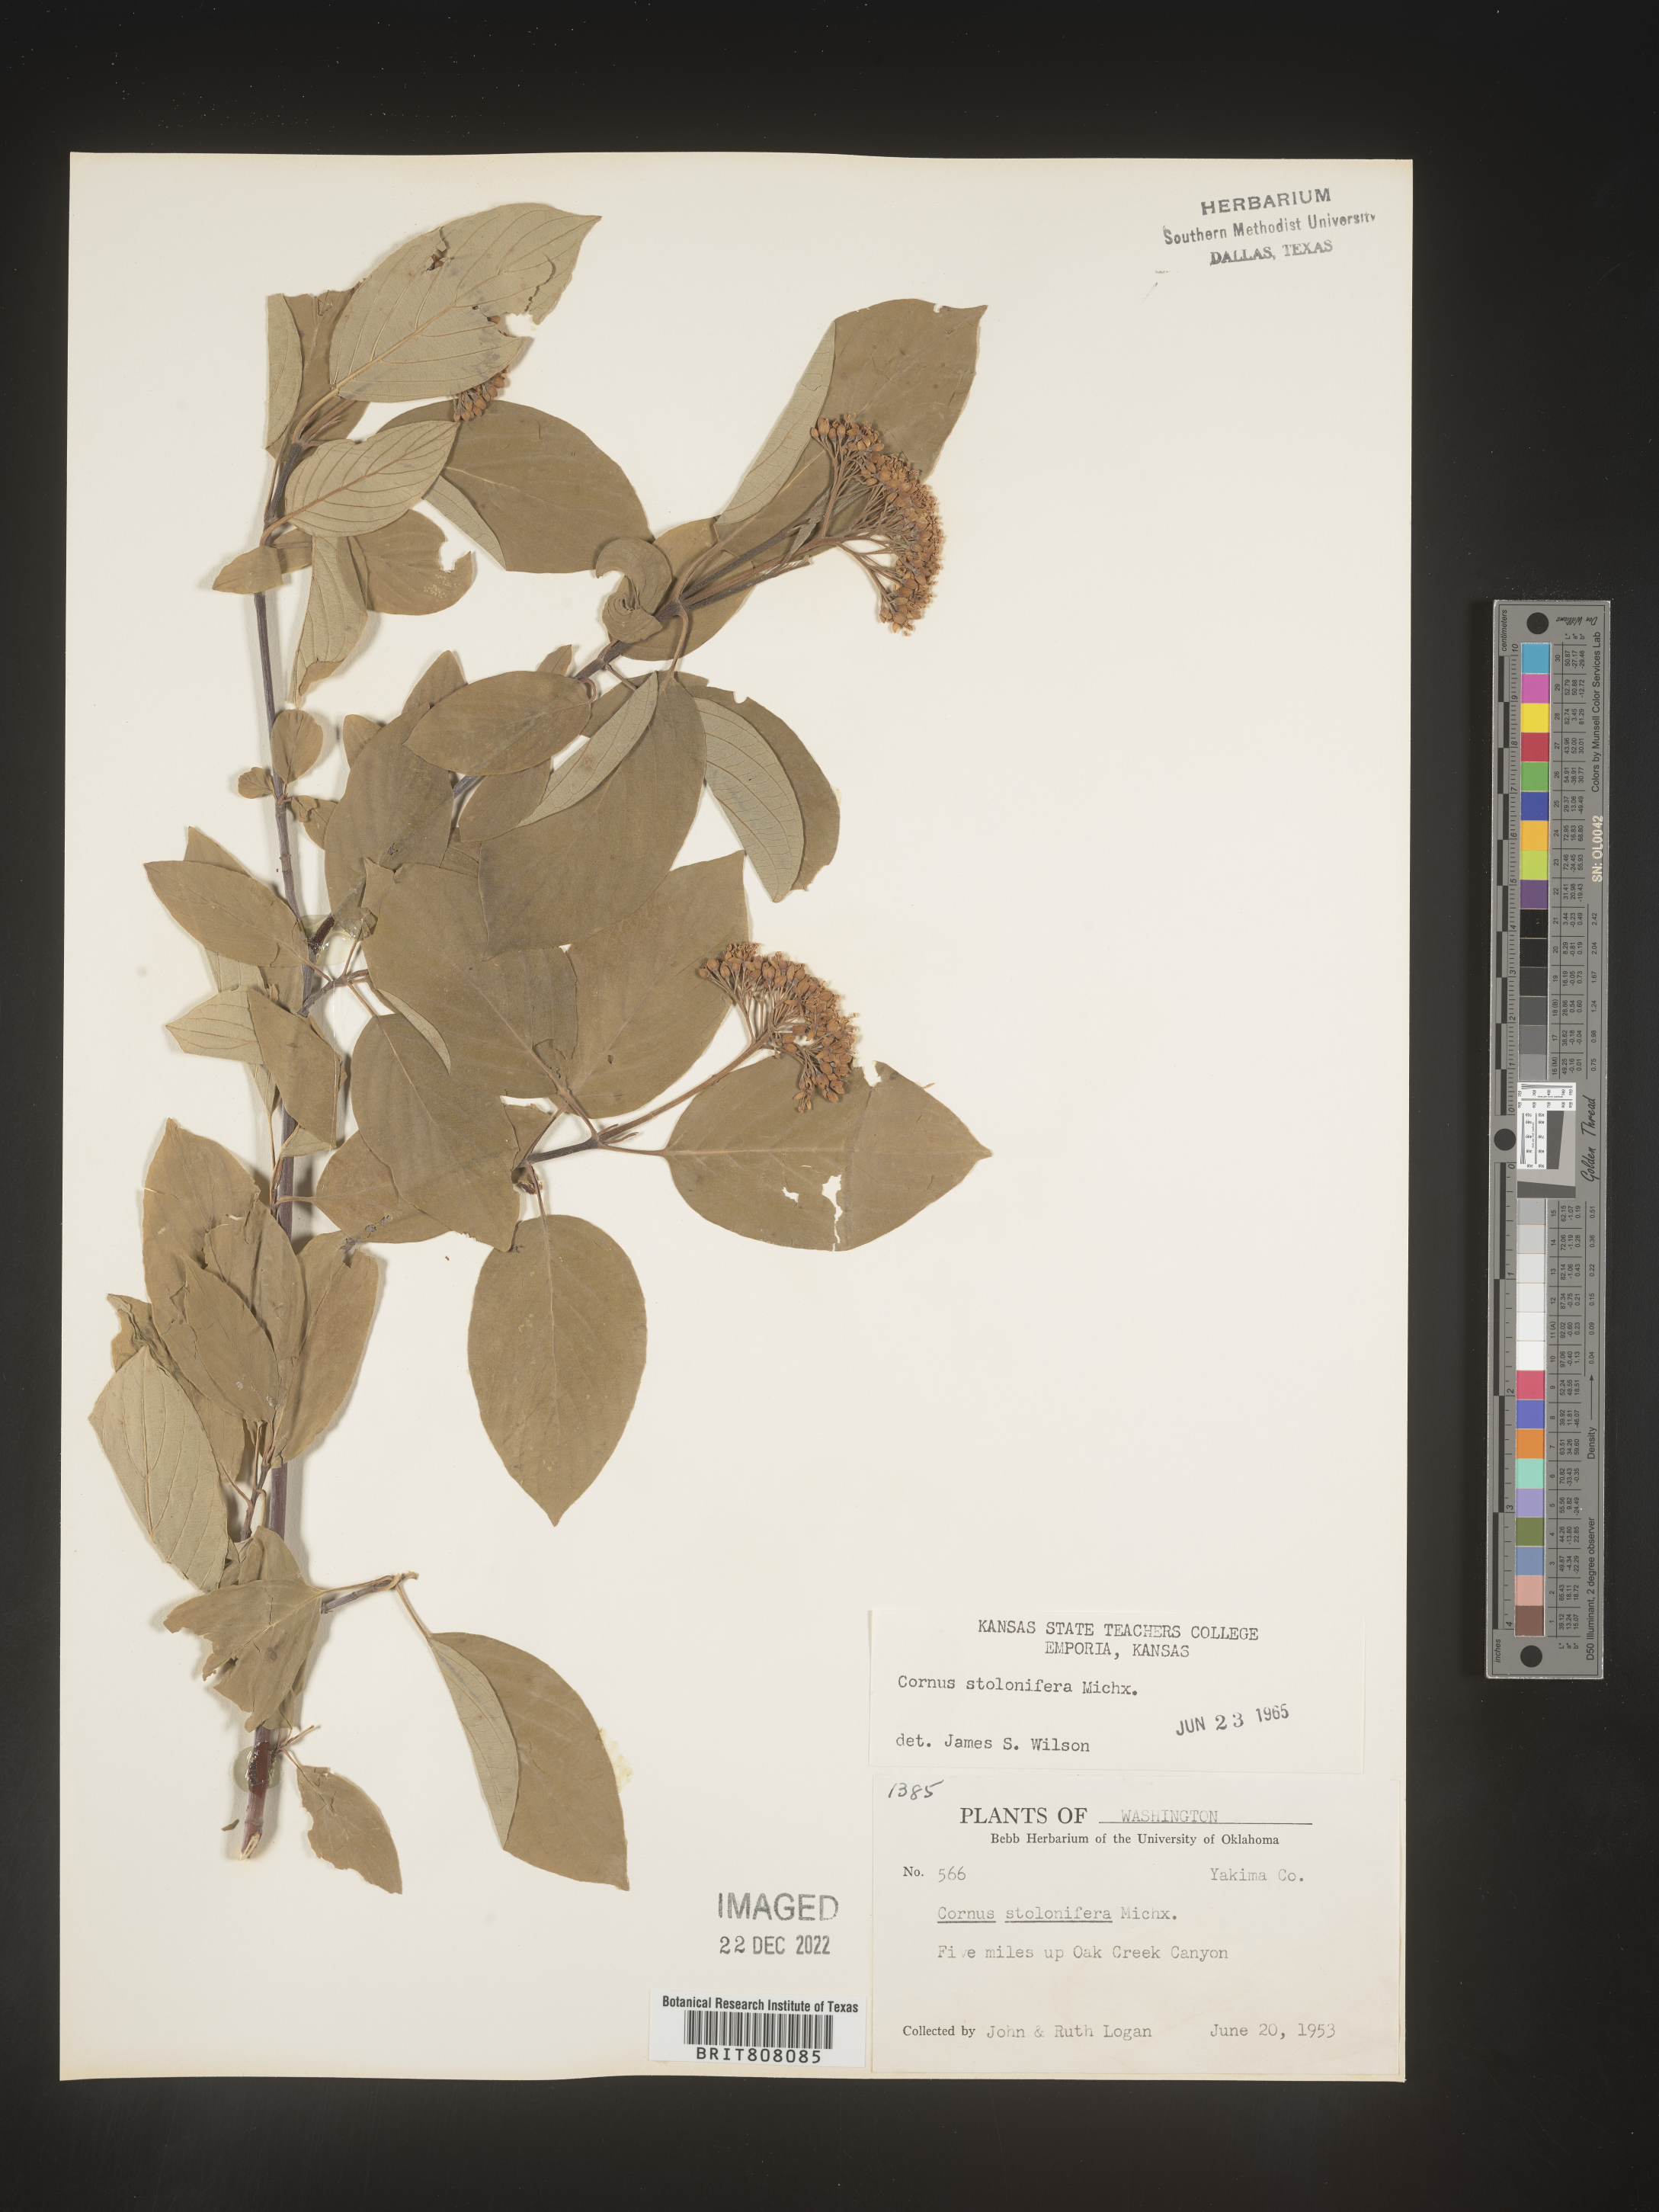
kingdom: Plantae
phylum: Tracheophyta
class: Magnoliopsida
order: Cornales
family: Cornaceae
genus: Cornus
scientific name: Cornus sericea
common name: Red-osier dogwood
